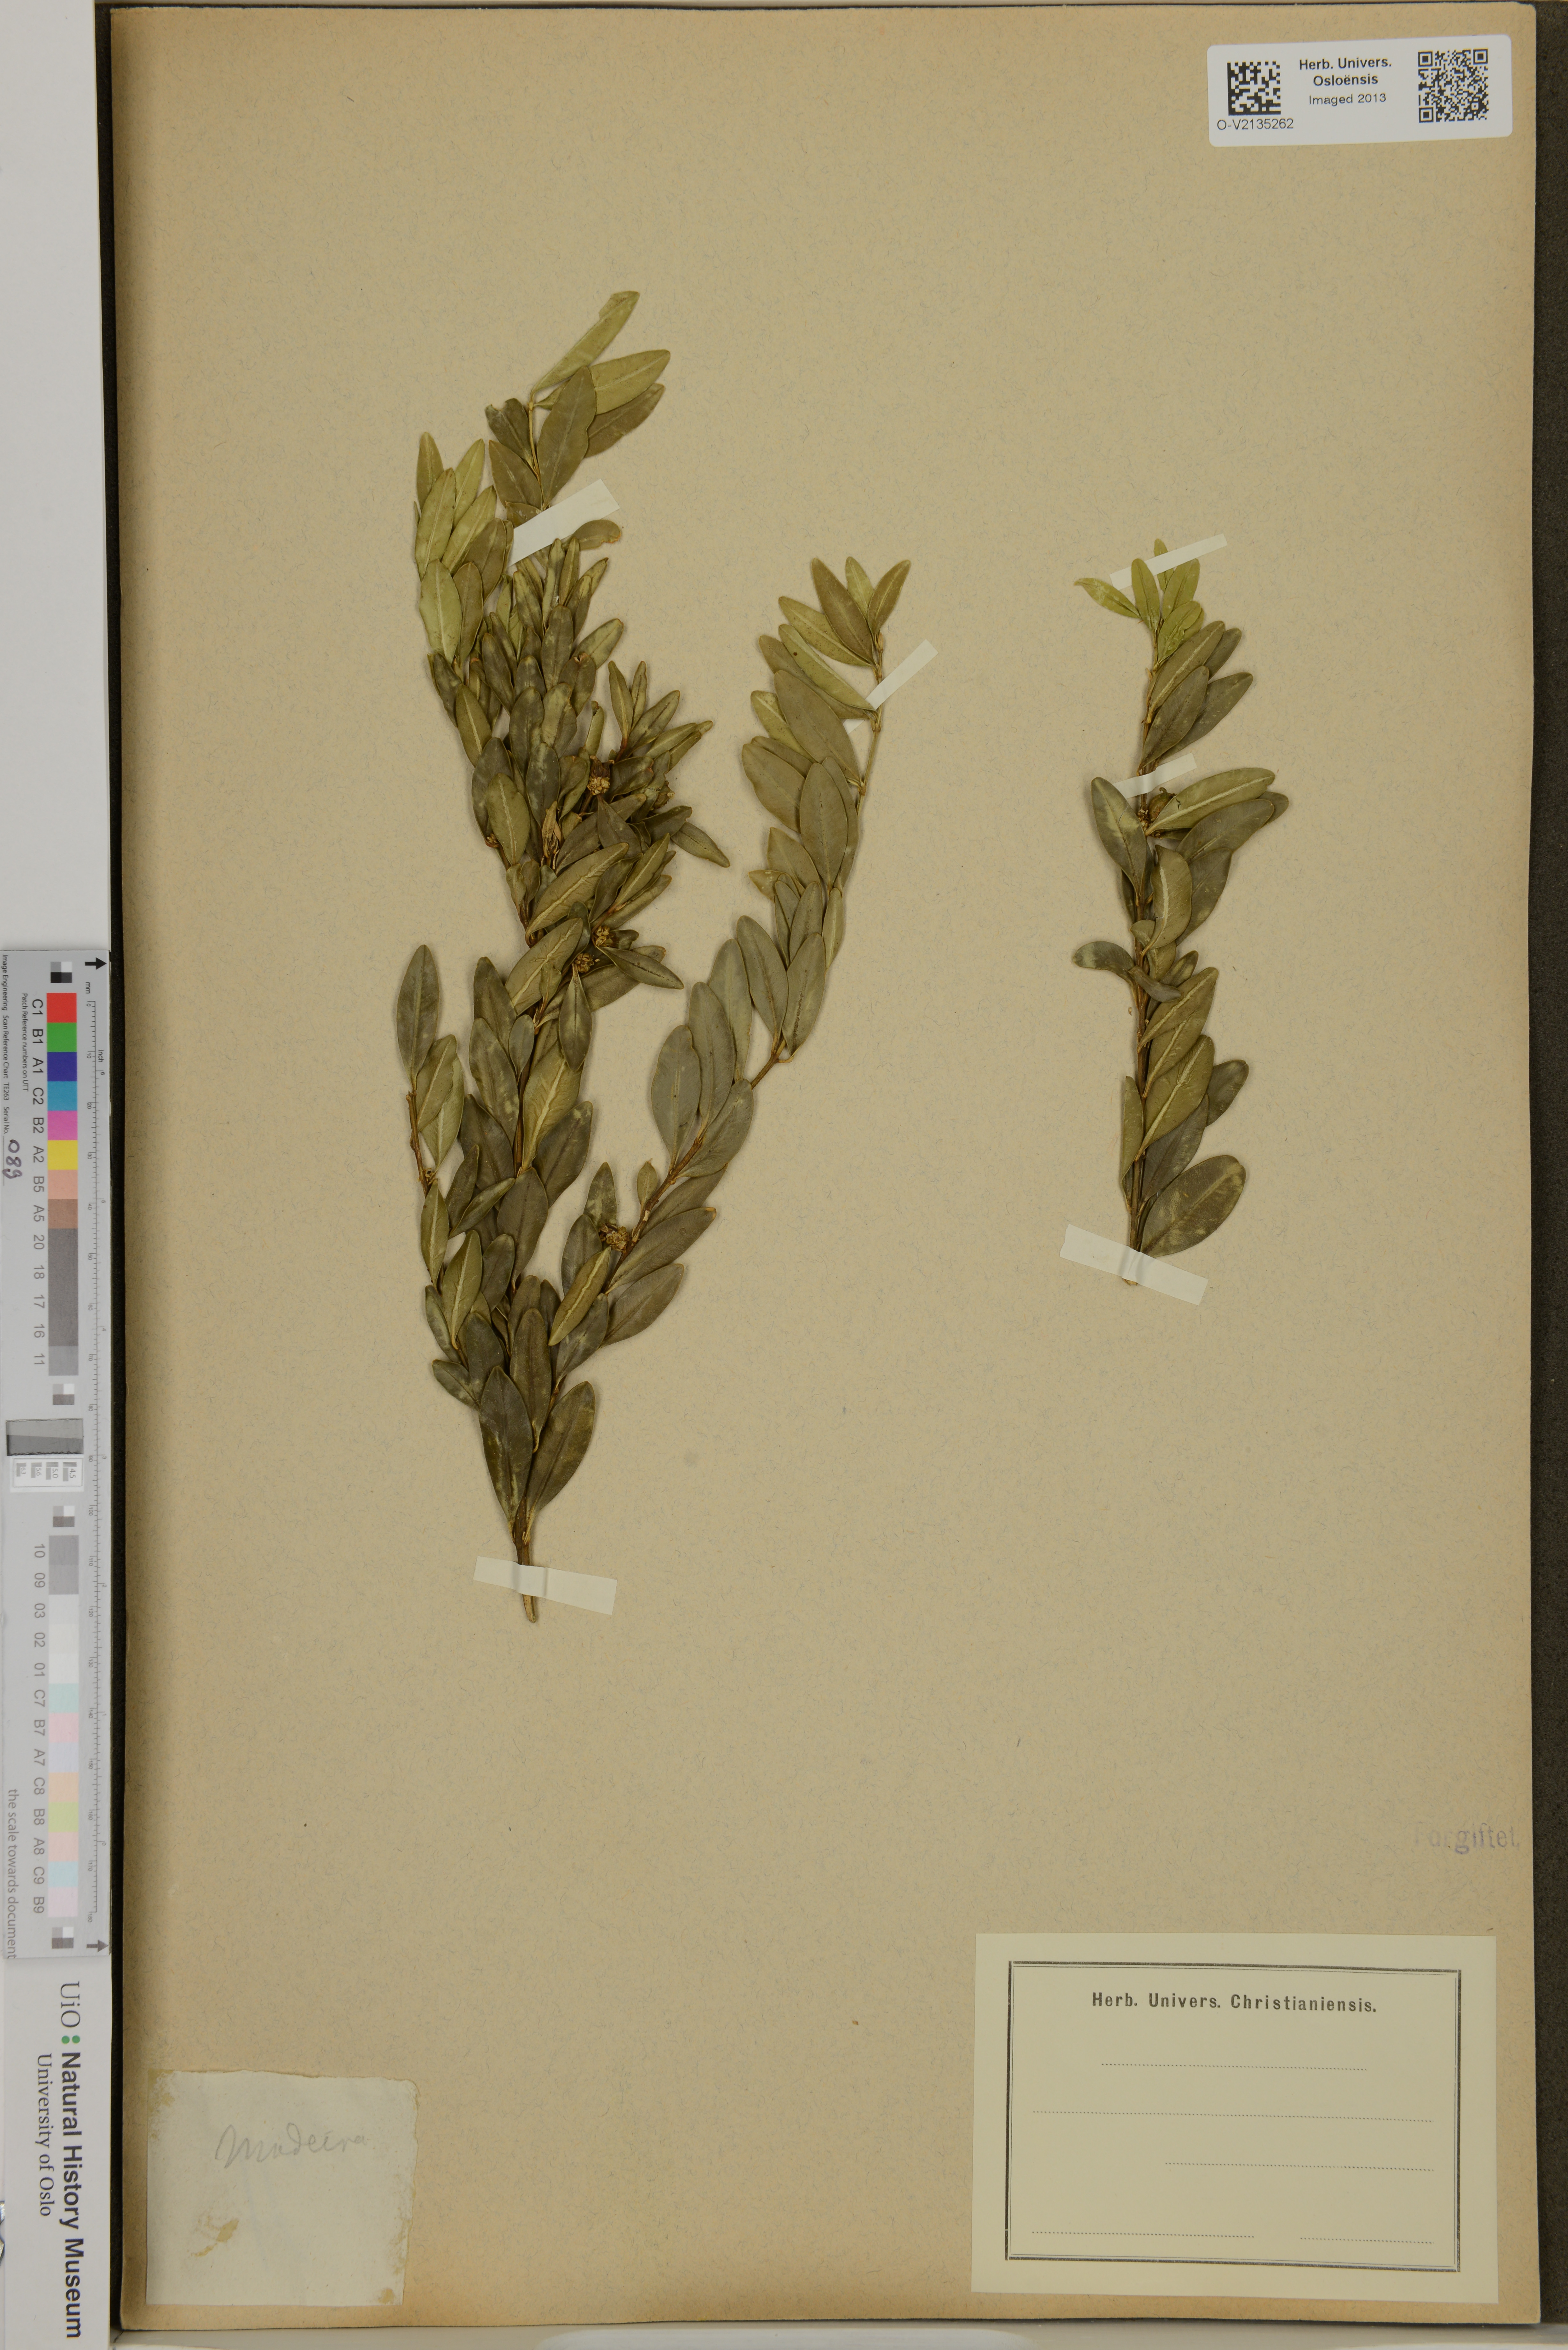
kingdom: Plantae
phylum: Tracheophyta
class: Magnoliopsida
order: Buxales
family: Buxaceae
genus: Buxus
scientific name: Buxus
